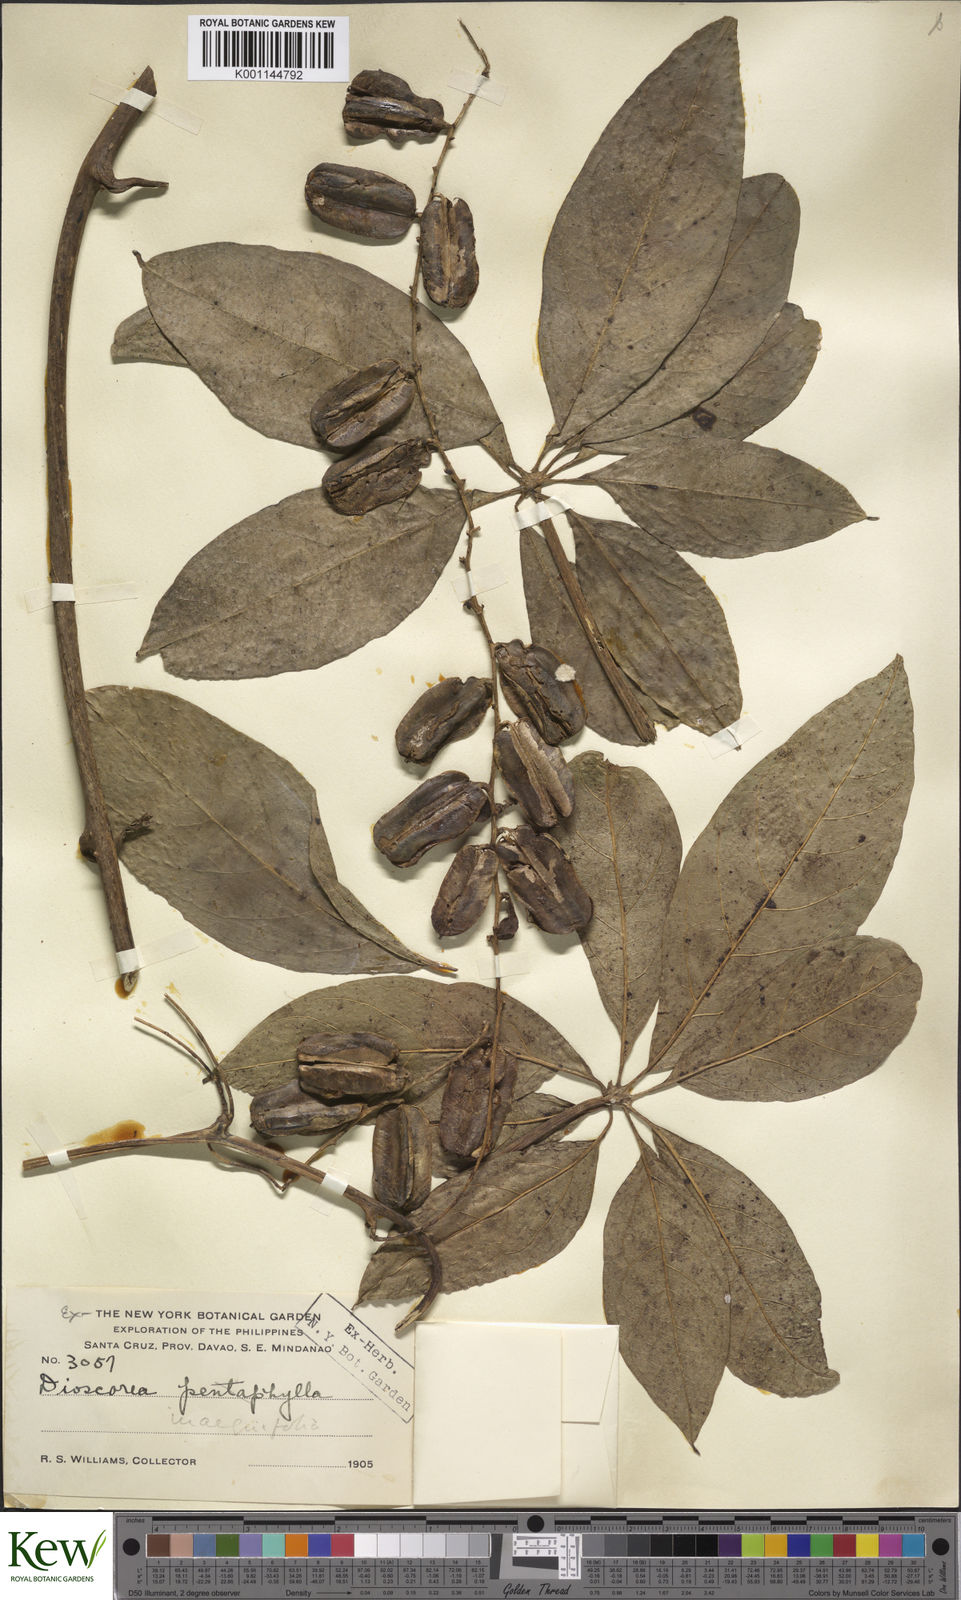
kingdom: Plantae
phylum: Tracheophyta
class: Liliopsida
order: Dioscoreales
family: Dioscoreaceae
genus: Dioscorea
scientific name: Dioscorea cumingii
